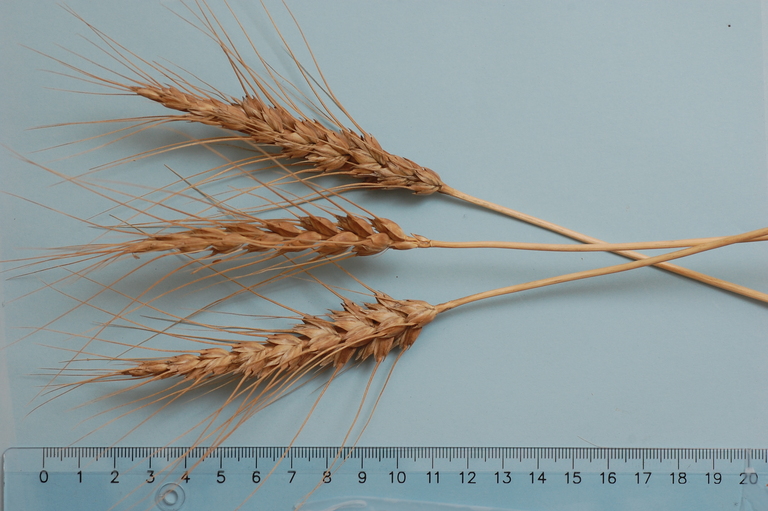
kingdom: Plantae
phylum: Tracheophyta
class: Liliopsida
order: Poales
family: Poaceae
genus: Triticum
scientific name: Triticum aestivum
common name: Common wheat
